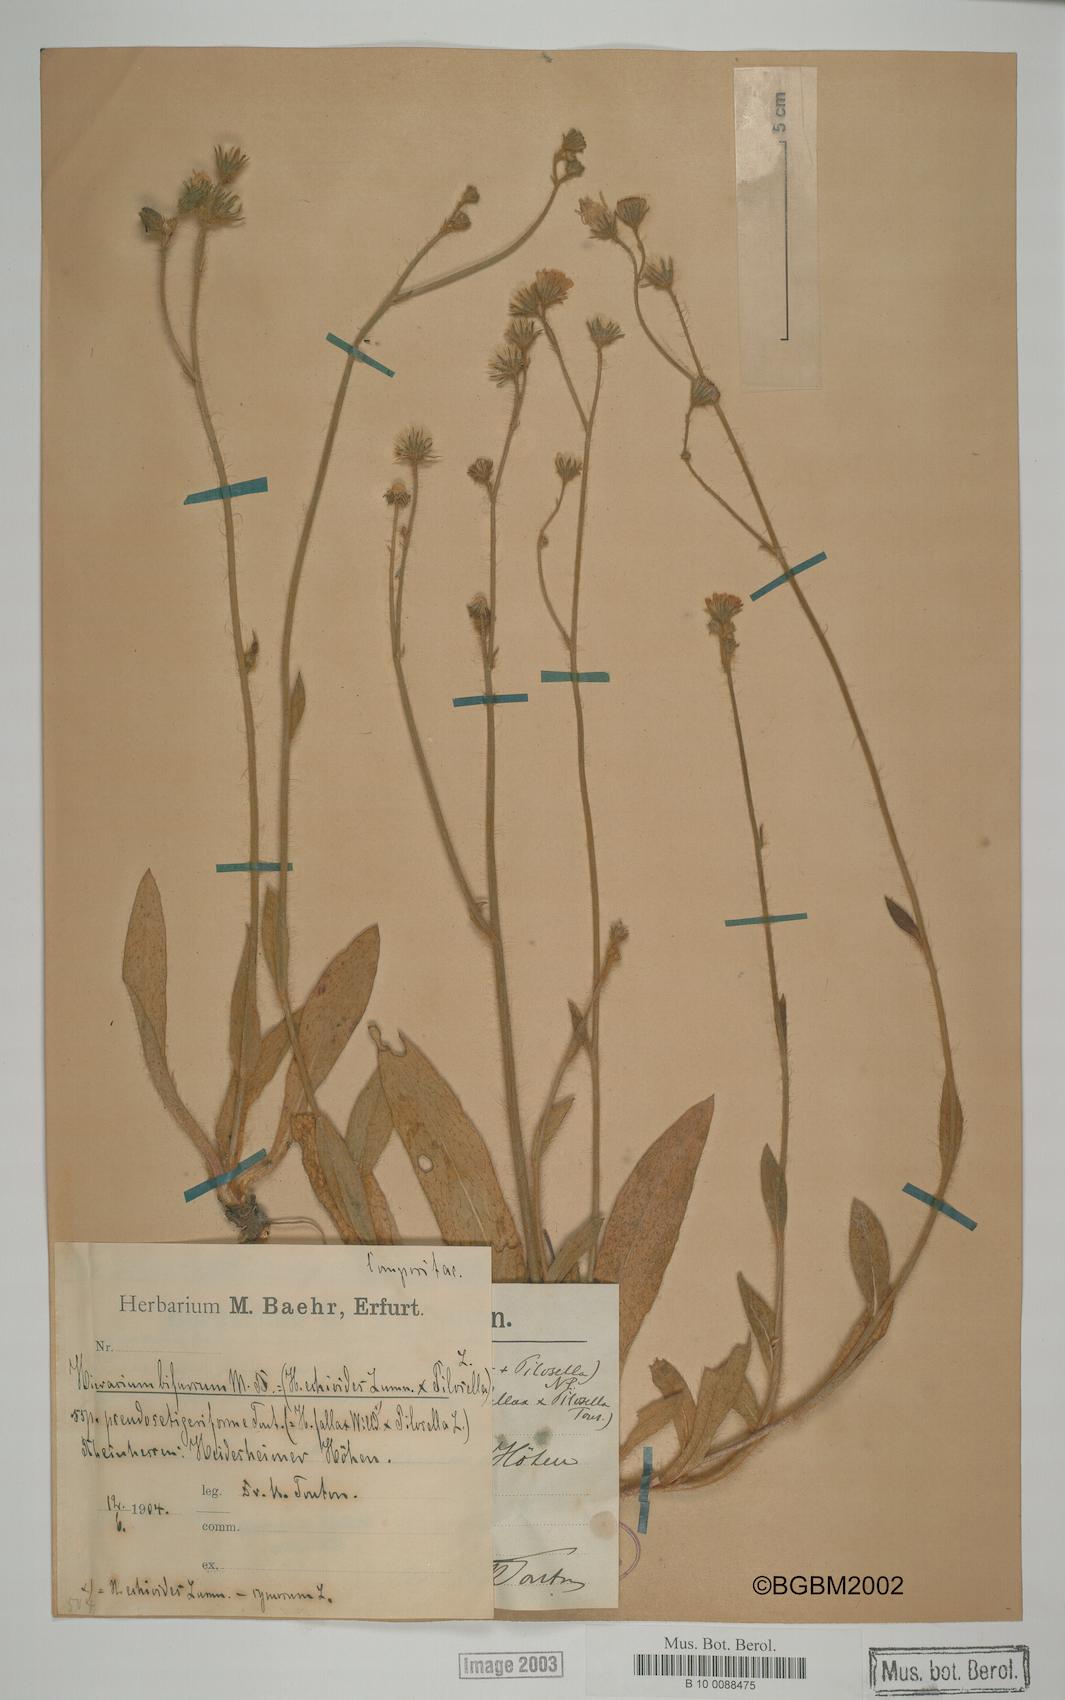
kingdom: Plantae
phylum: Tracheophyta
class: Magnoliopsida
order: Asterales
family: Asteraceae
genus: Hieracium
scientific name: Hieracium bifurcum
